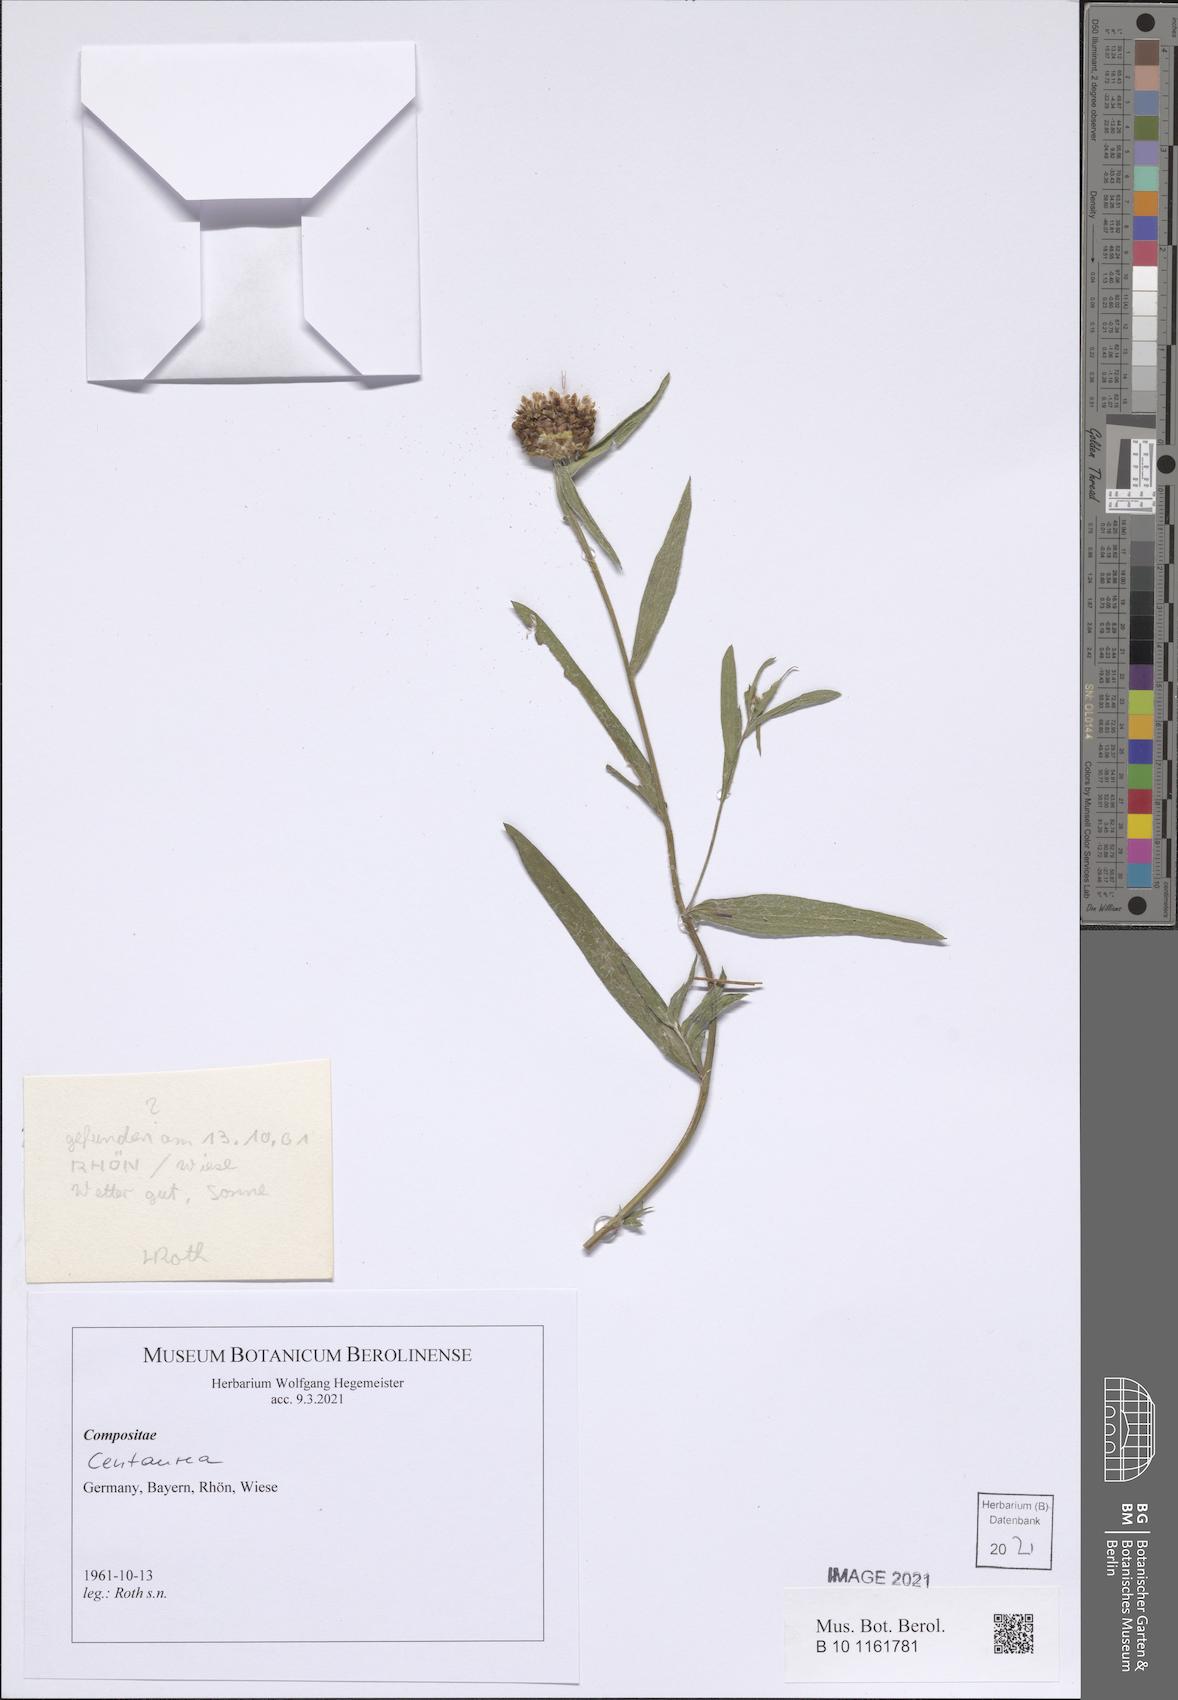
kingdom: Plantae
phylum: Tracheophyta
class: Magnoliopsida
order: Asterales
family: Asteraceae
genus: Centaurea
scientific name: Centaurea
